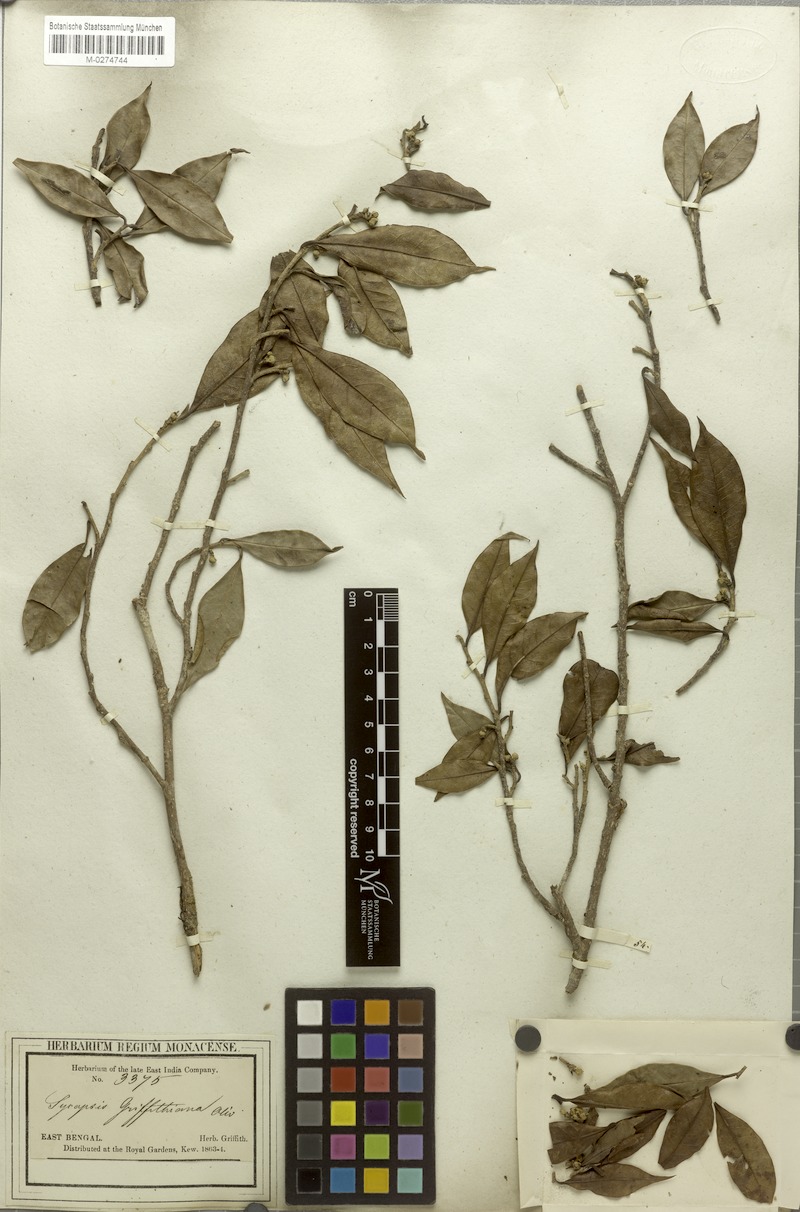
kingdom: Plantae
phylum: Tracheophyta
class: Magnoliopsida
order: Saxifragales
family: Hamamelidaceae
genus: Eustigma
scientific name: Eustigma lenticellatum
